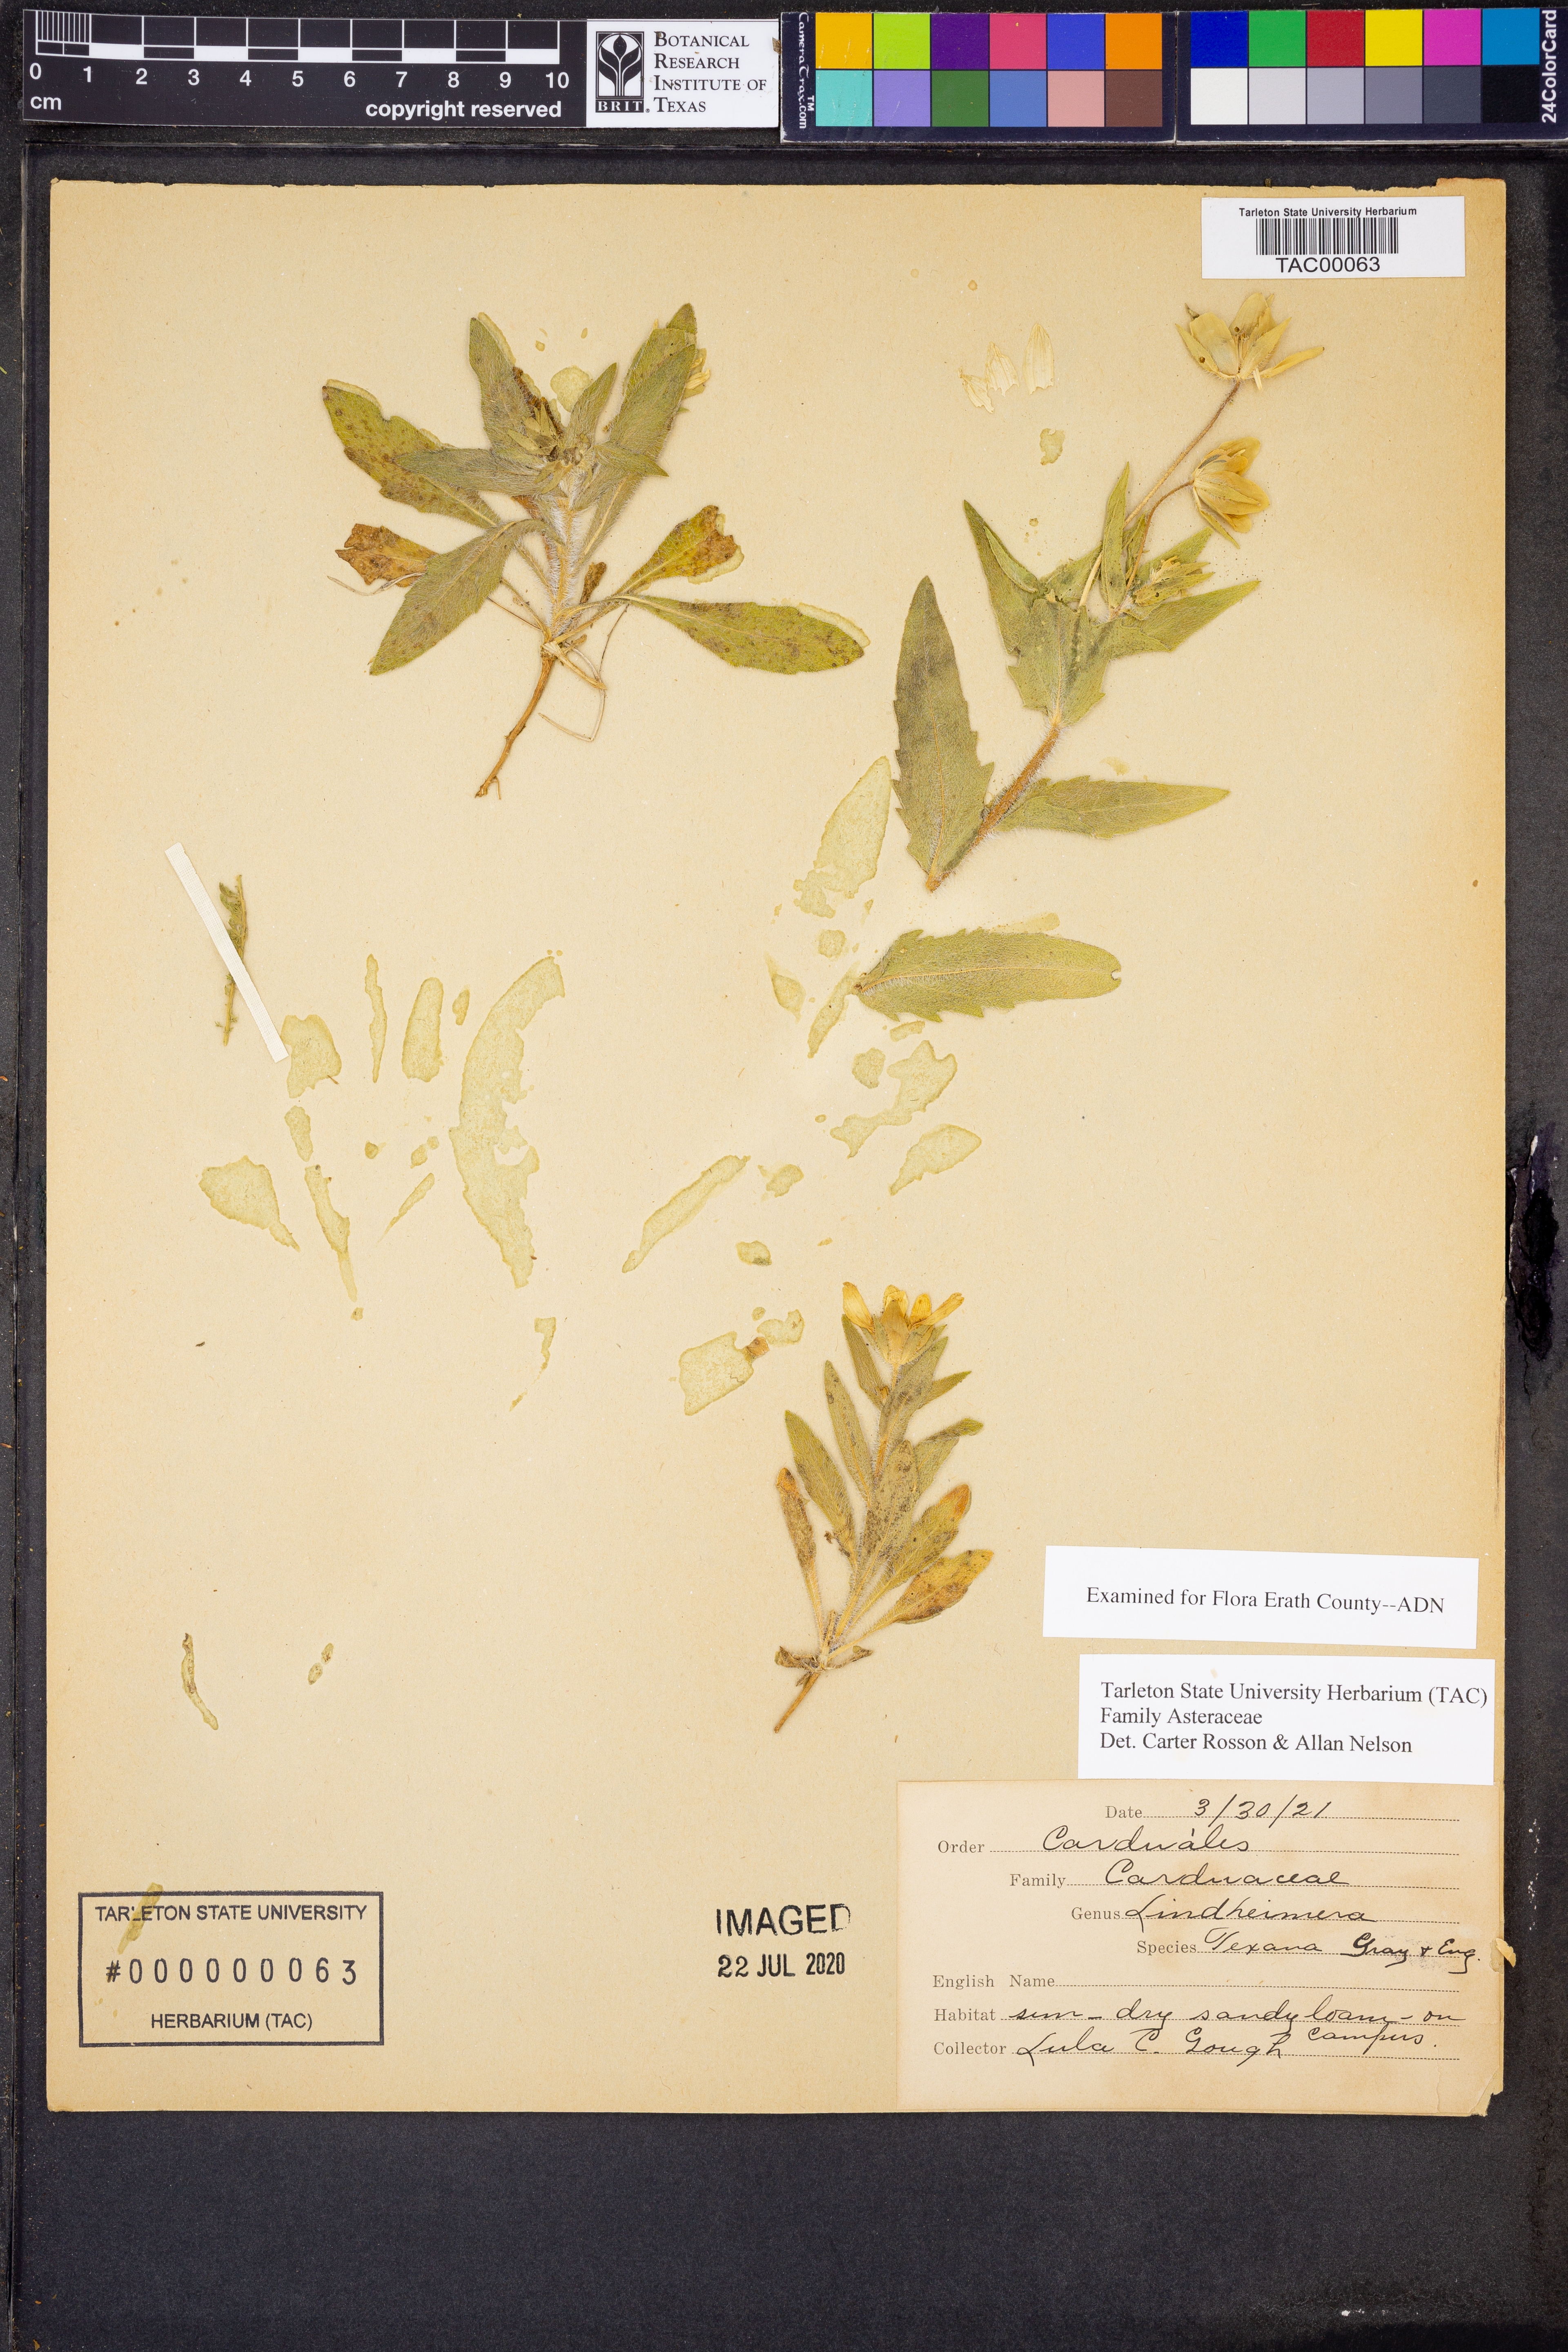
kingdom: Plantae
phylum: Tracheophyta
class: Magnoliopsida
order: Asterales
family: Asteraceae
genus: Lindheimera
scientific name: Lindheimera texana
